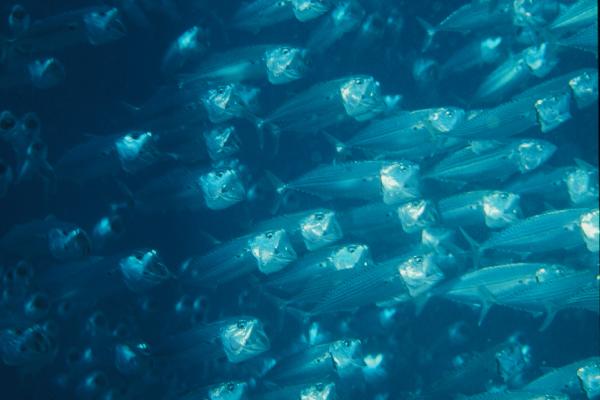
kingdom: Animalia
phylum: Chordata
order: Perciformes
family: Scombridae
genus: Rastrelliger
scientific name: Rastrelliger
